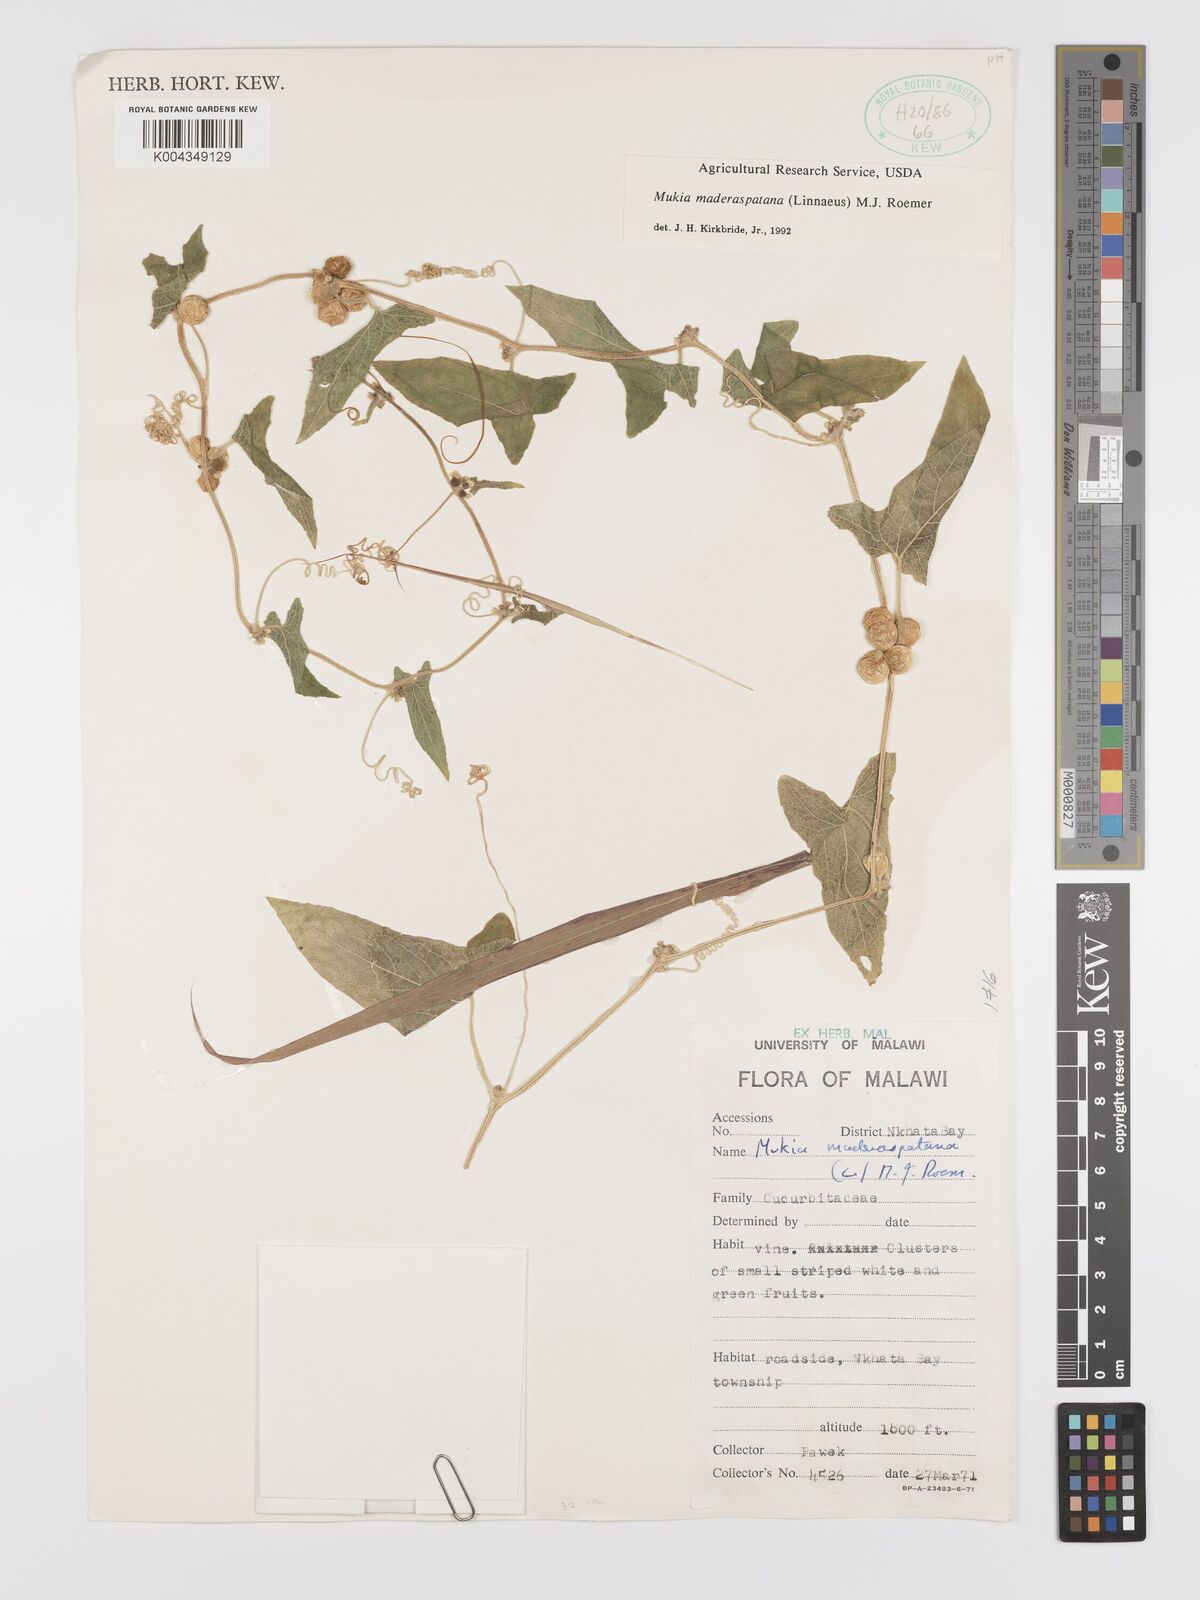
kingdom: Plantae
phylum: Tracheophyta
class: Magnoliopsida
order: Cucurbitales
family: Cucurbitaceae
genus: Cucumis
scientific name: Cucumis maderaspatanus
